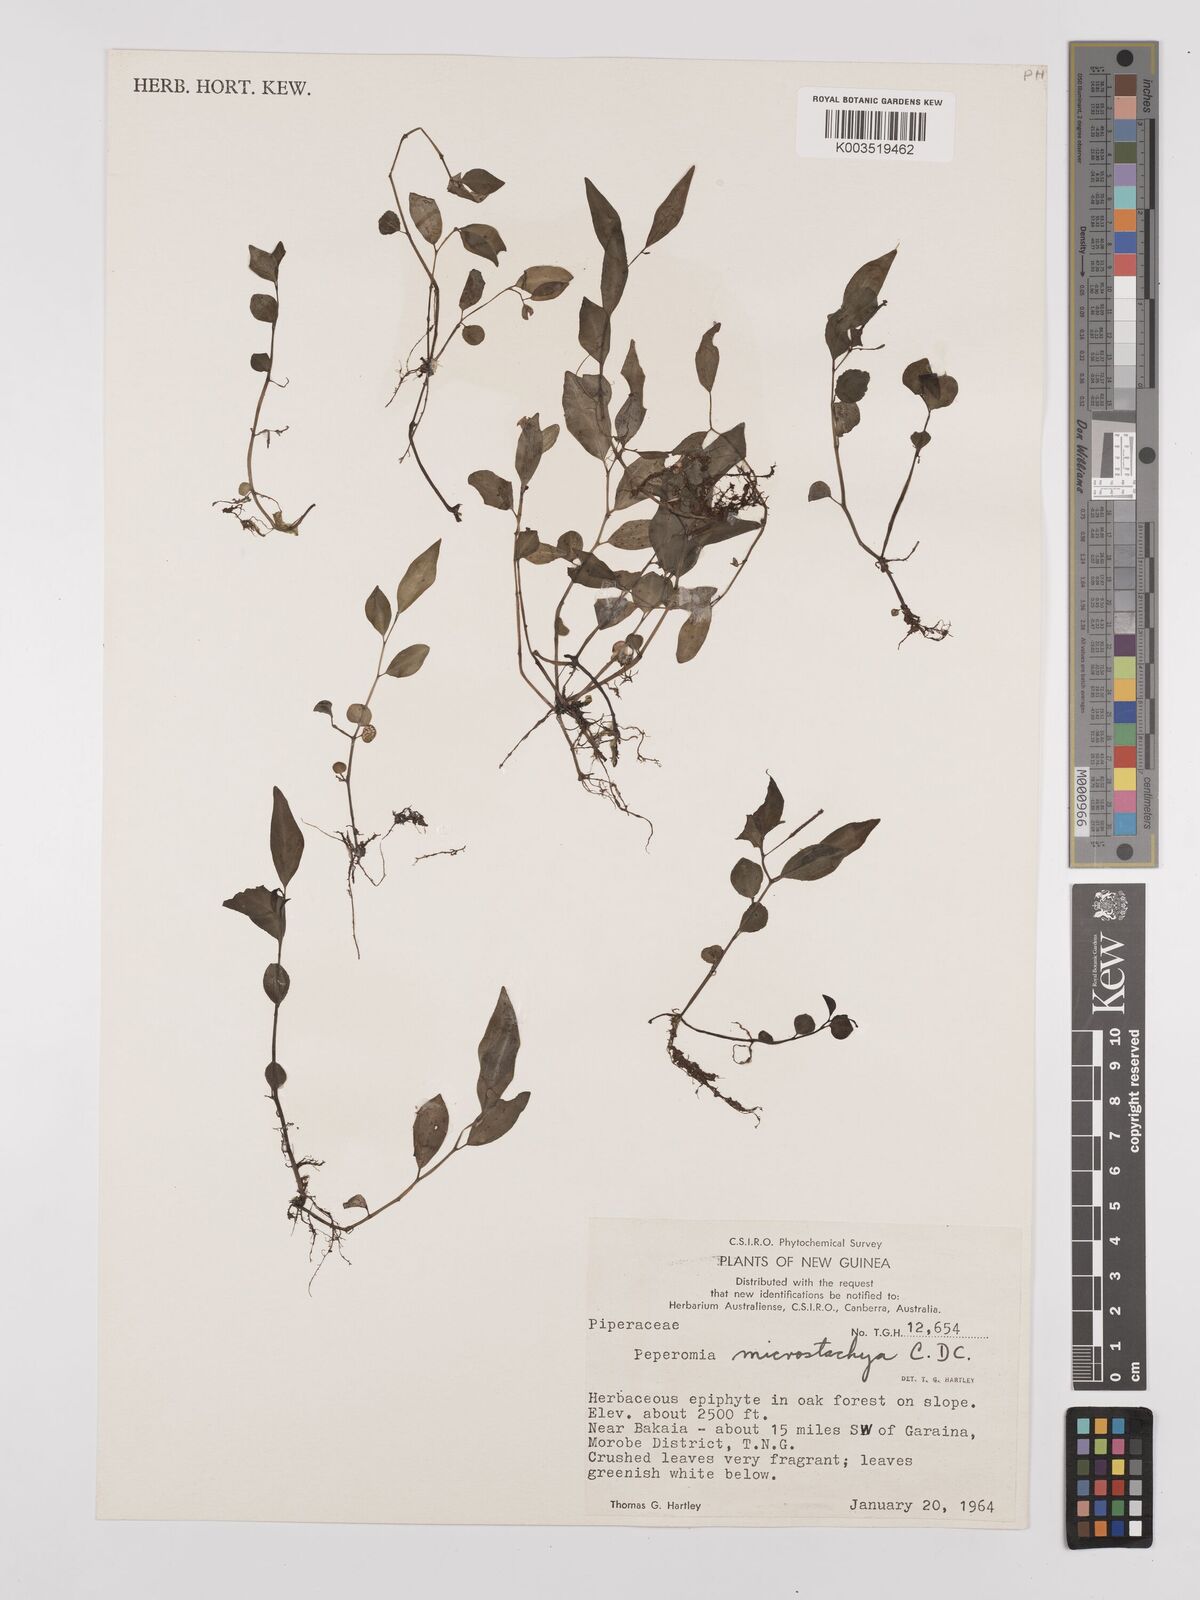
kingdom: Plantae
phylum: Tracheophyta
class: Magnoliopsida
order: Piperales
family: Piperaceae
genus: Peperomia
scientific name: Peperomia microstachya
